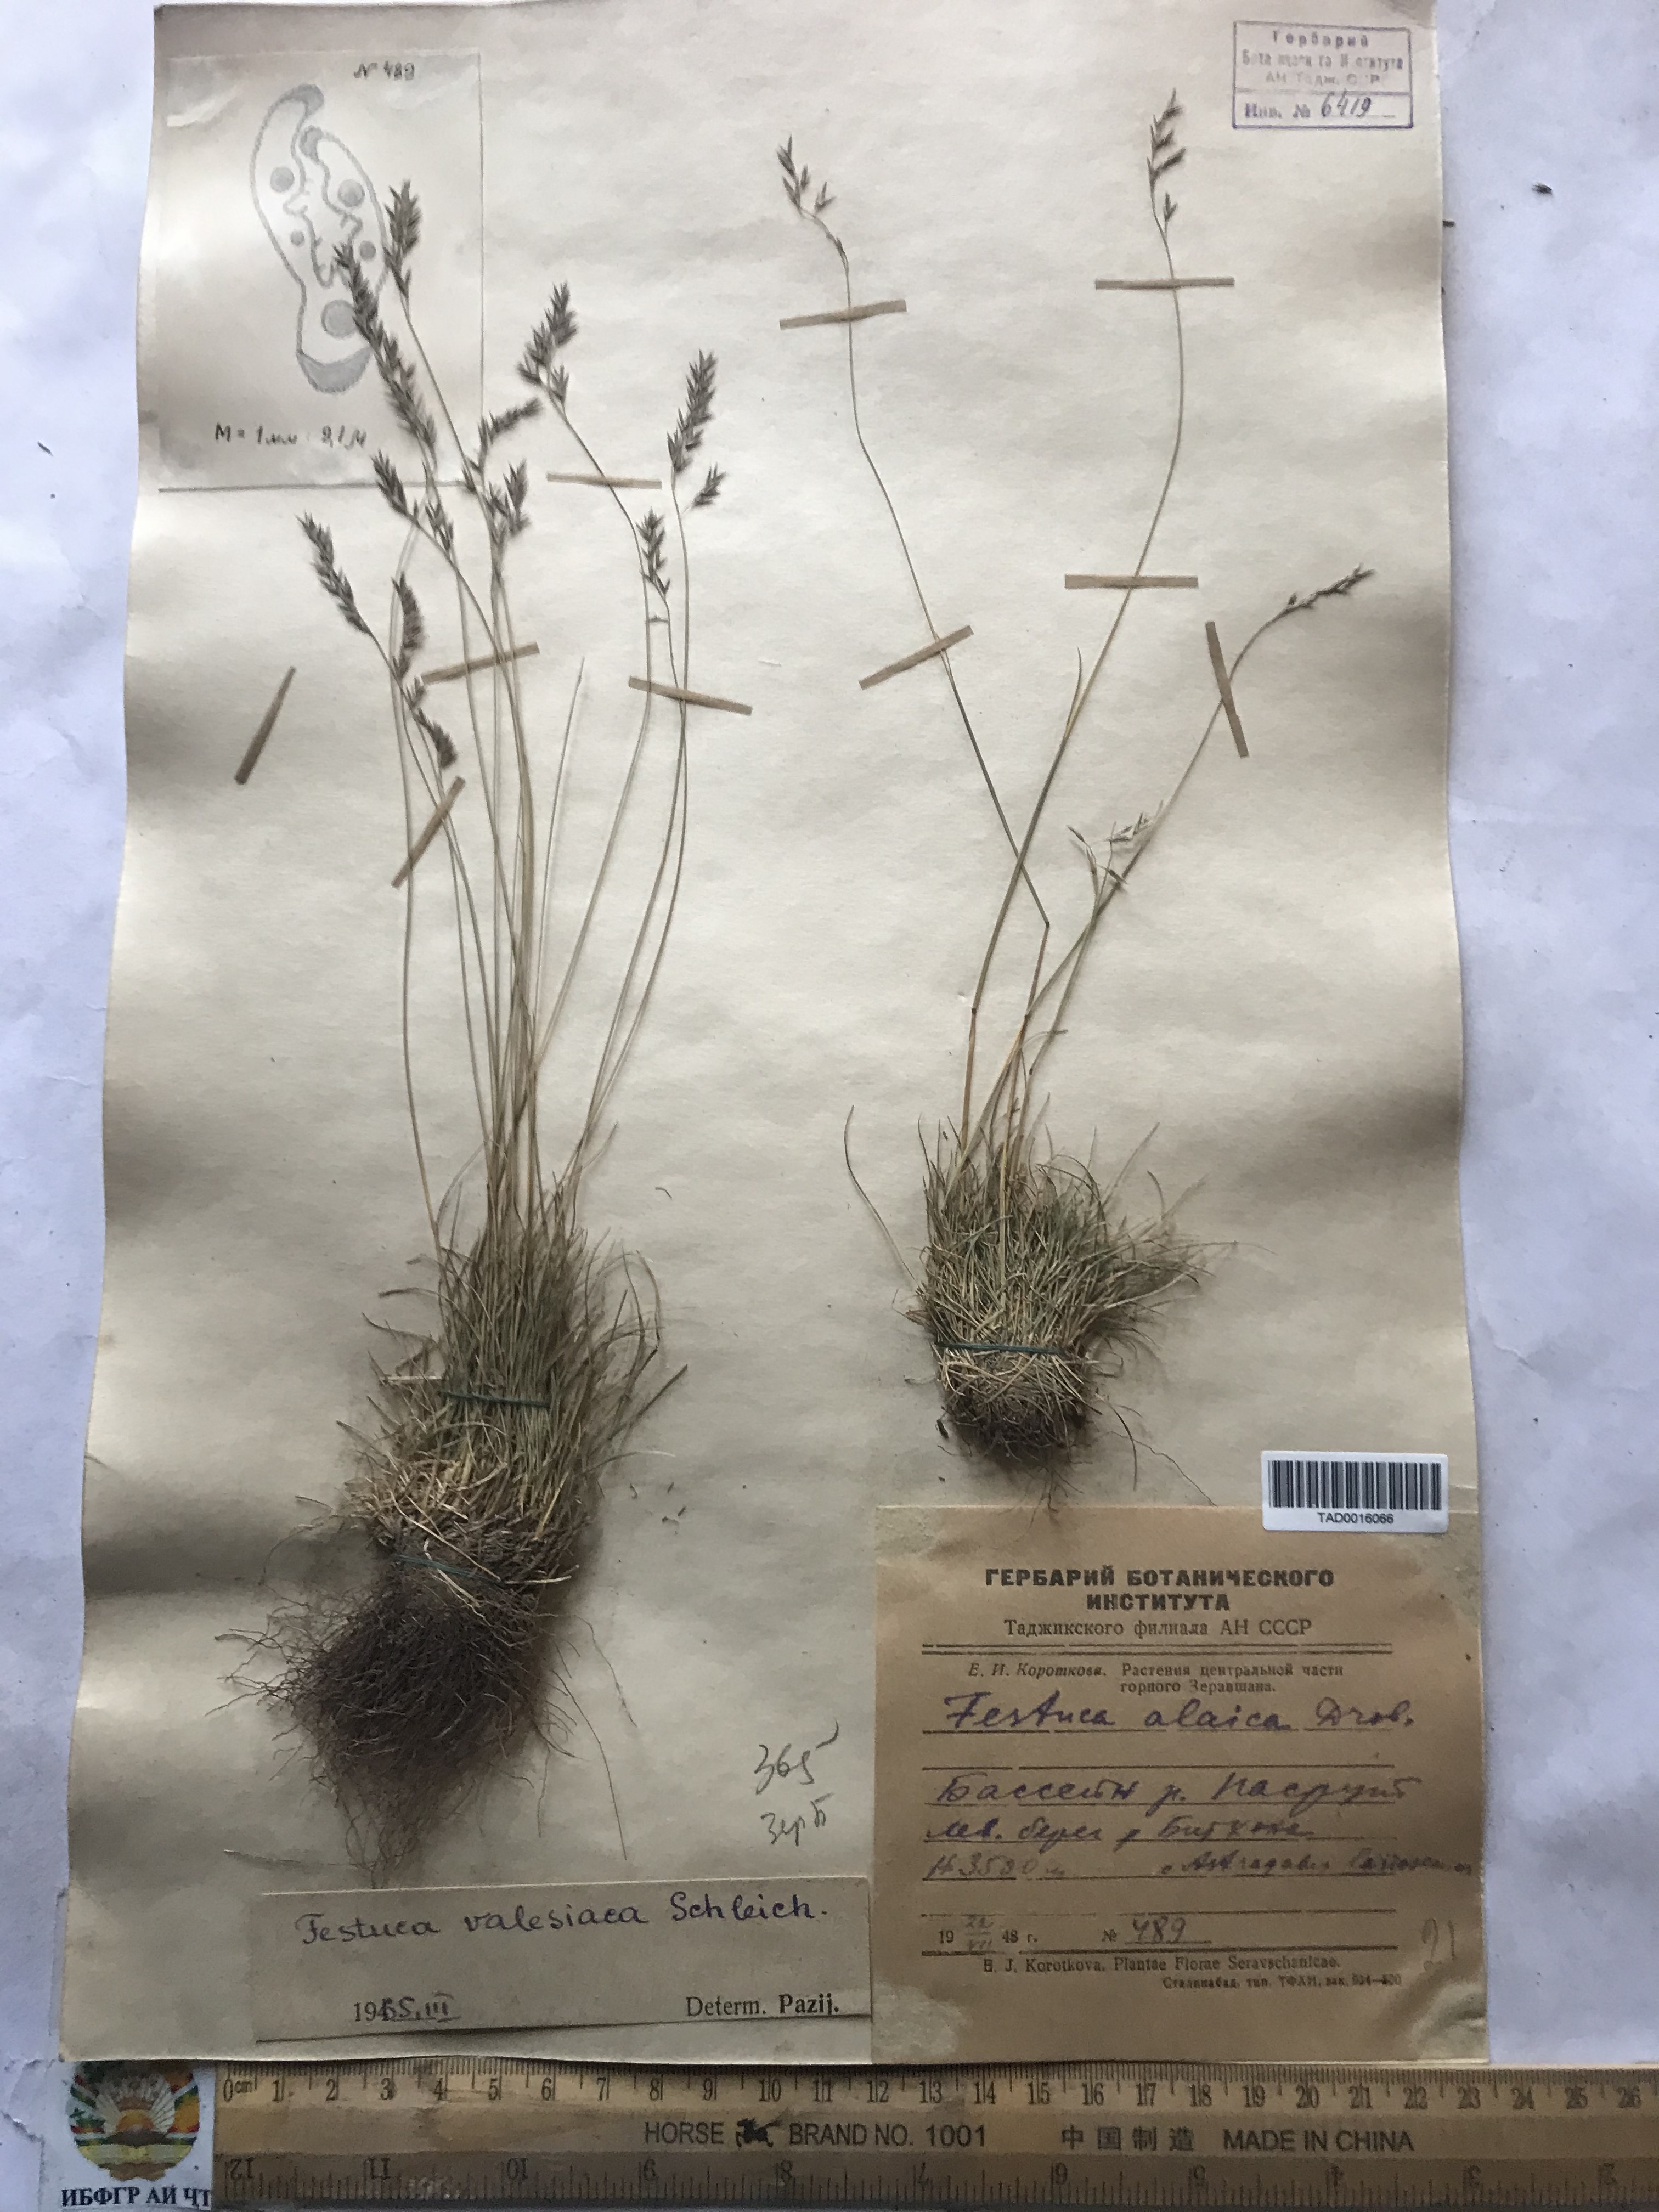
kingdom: Plantae
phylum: Tracheophyta
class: Liliopsida
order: Poales
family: Poaceae
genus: Festuca
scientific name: Festuca valesiaca
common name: Volga fescue
